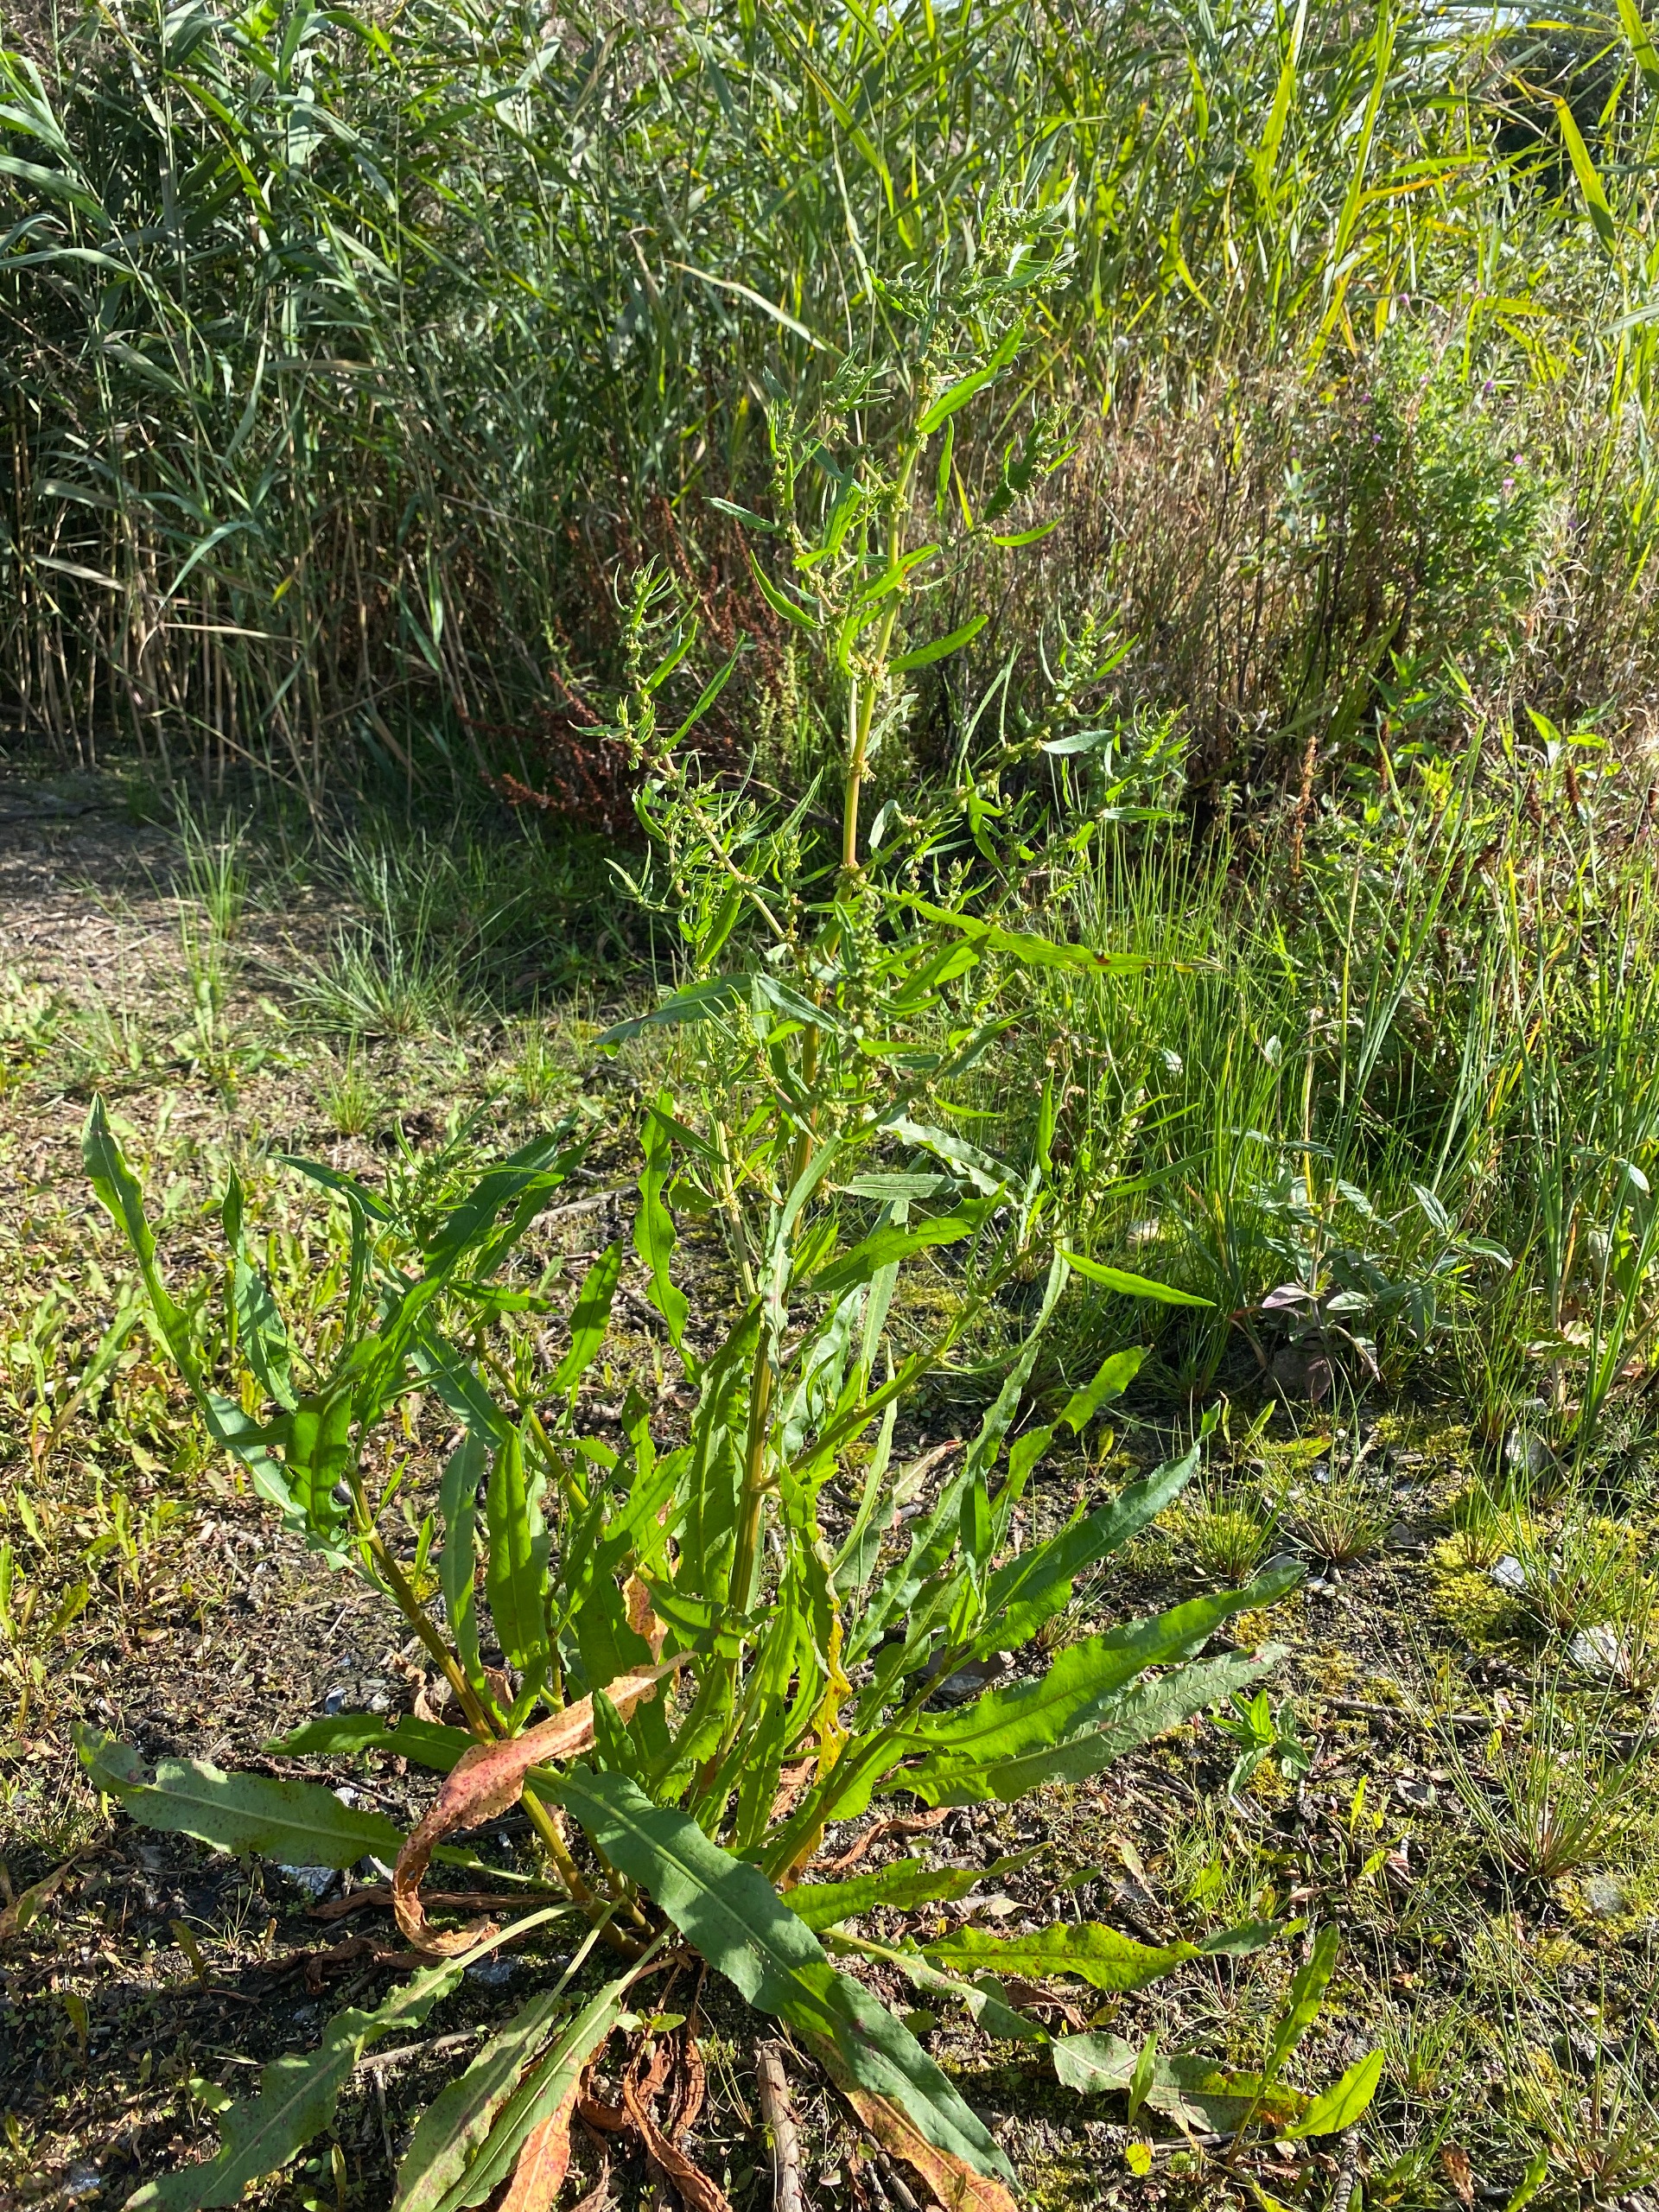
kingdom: Plantae
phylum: Tracheophyta
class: Magnoliopsida
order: Caryophyllales
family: Polygonaceae
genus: Rumex
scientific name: Rumex palustris
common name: Sump-skræppe
